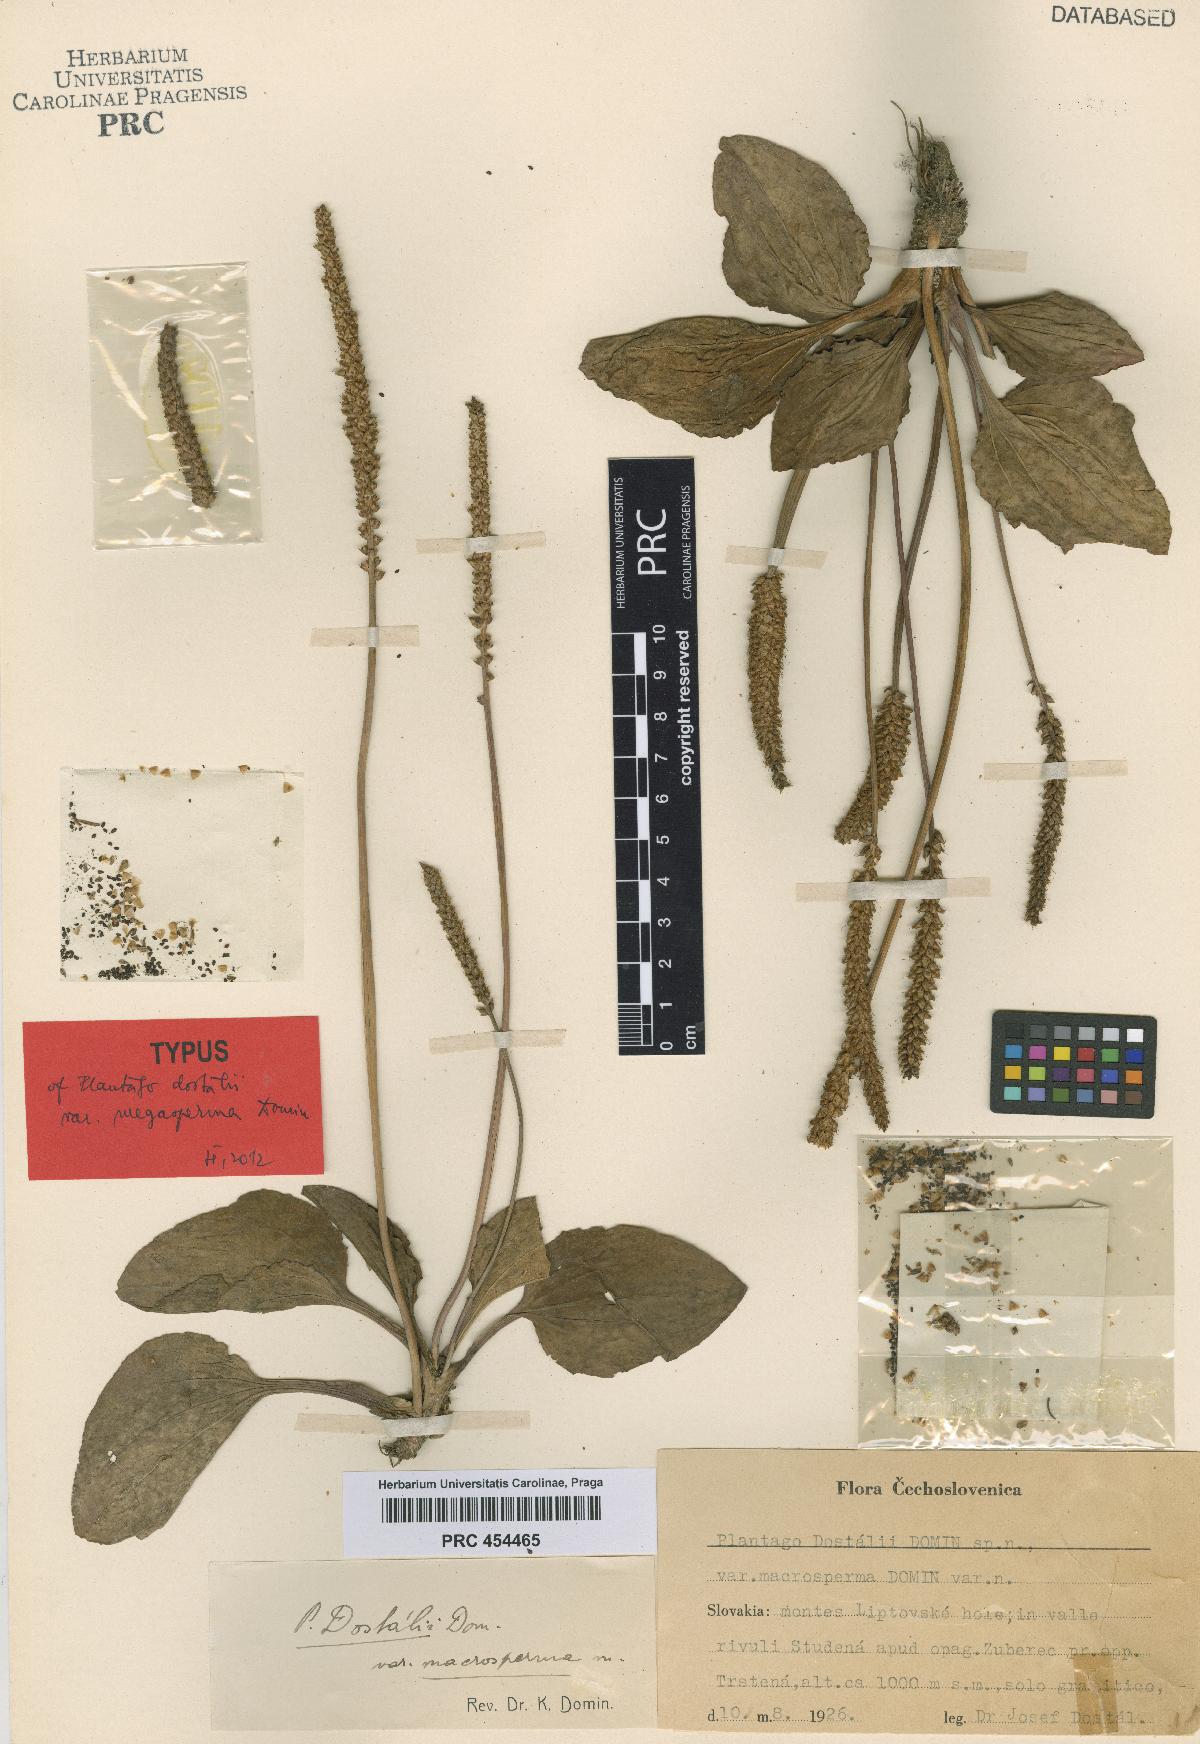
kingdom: Plantae
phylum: Tracheophyta
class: Magnoliopsida
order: Lamiales
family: Plantaginaceae
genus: Plantago
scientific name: Plantago major
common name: Common plantain
